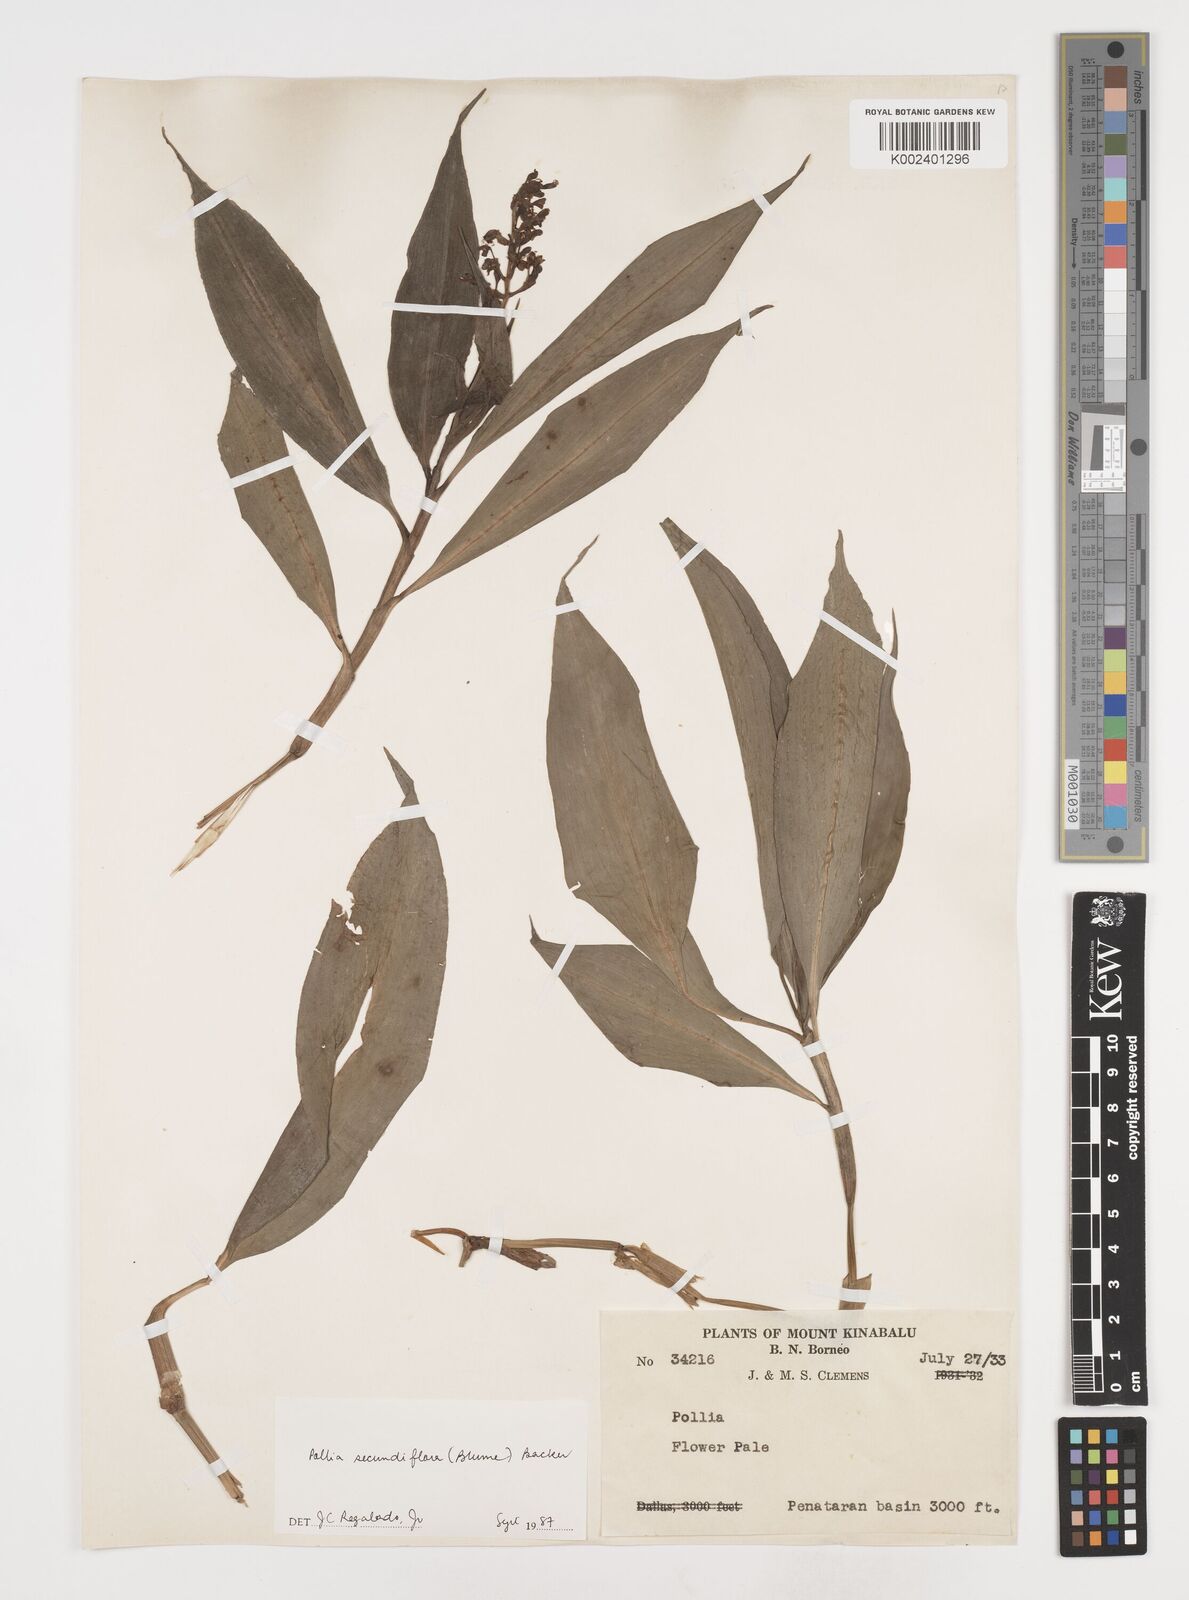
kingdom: Plantae
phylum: Tracheophyta
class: Liliopsida
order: Commelinales
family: Commelinaceae
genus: Pollia
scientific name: Pollia secundiflora
